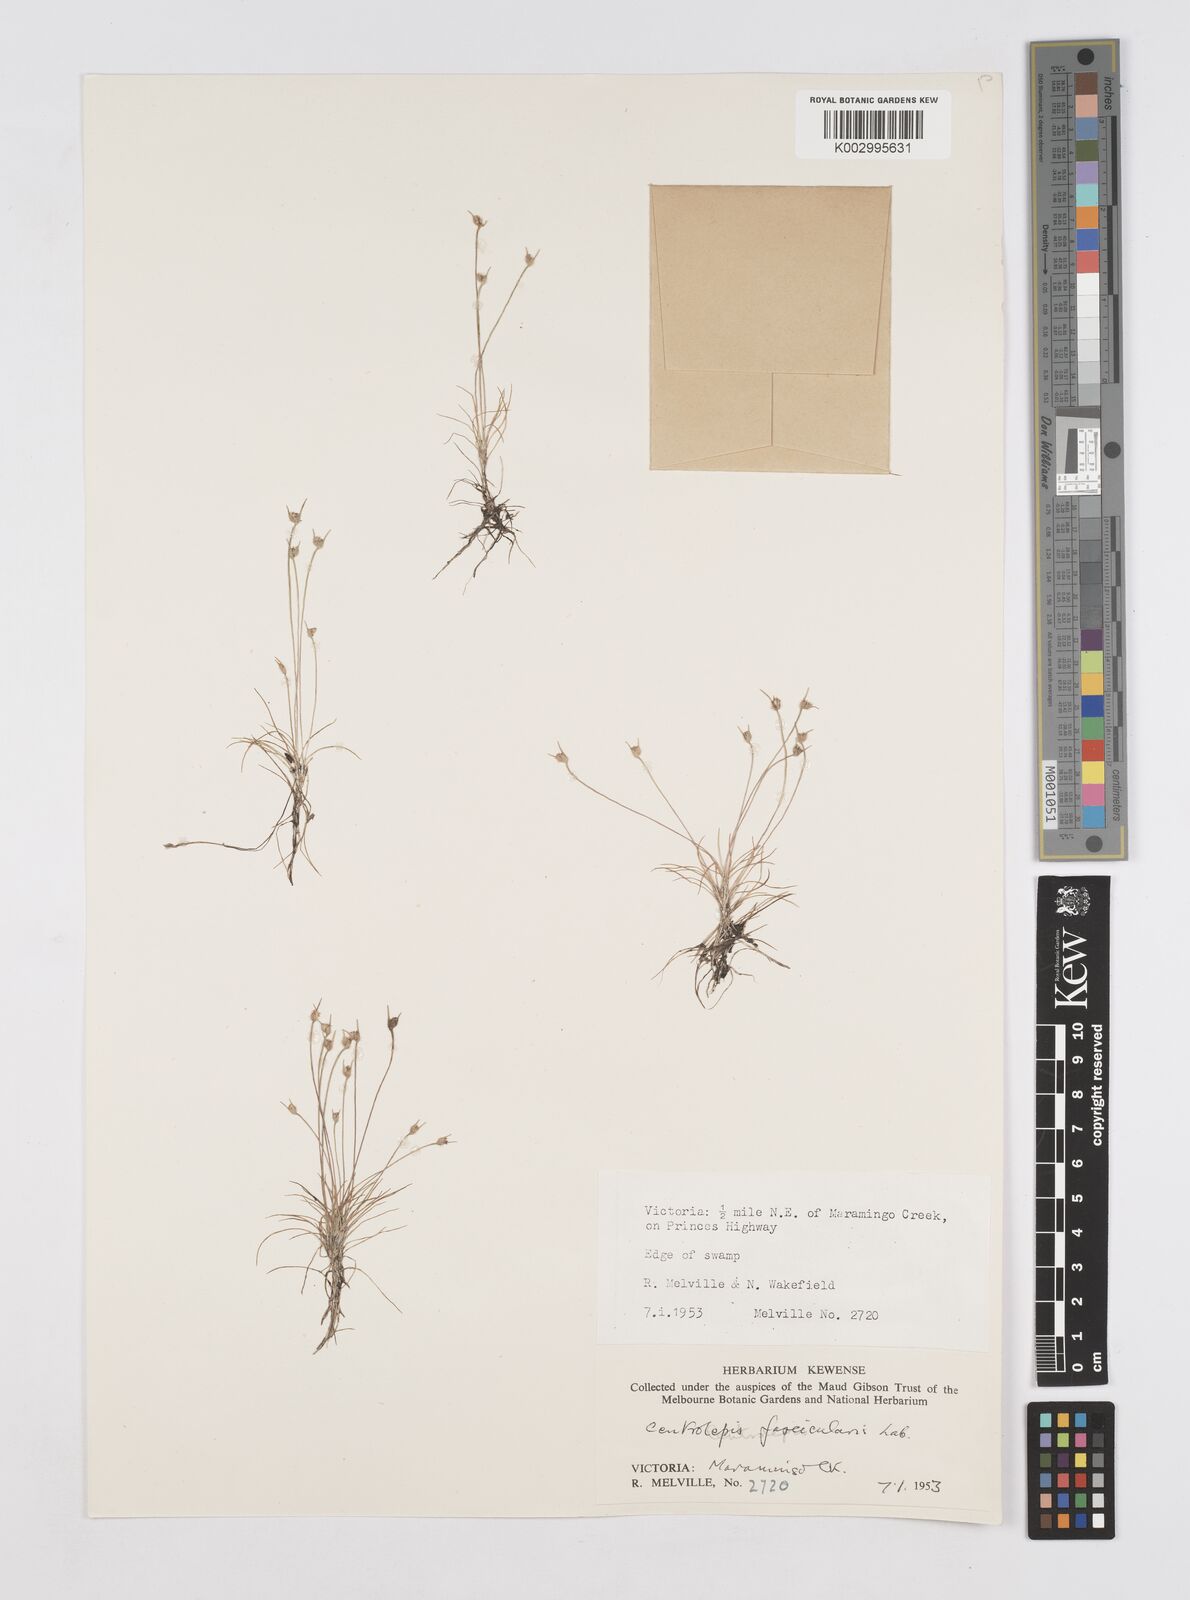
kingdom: Plantae
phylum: Tracheophyta
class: Liliopsida
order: Poales
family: Restionaceae
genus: Centrolepis
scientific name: Centrolepis fascicularis
